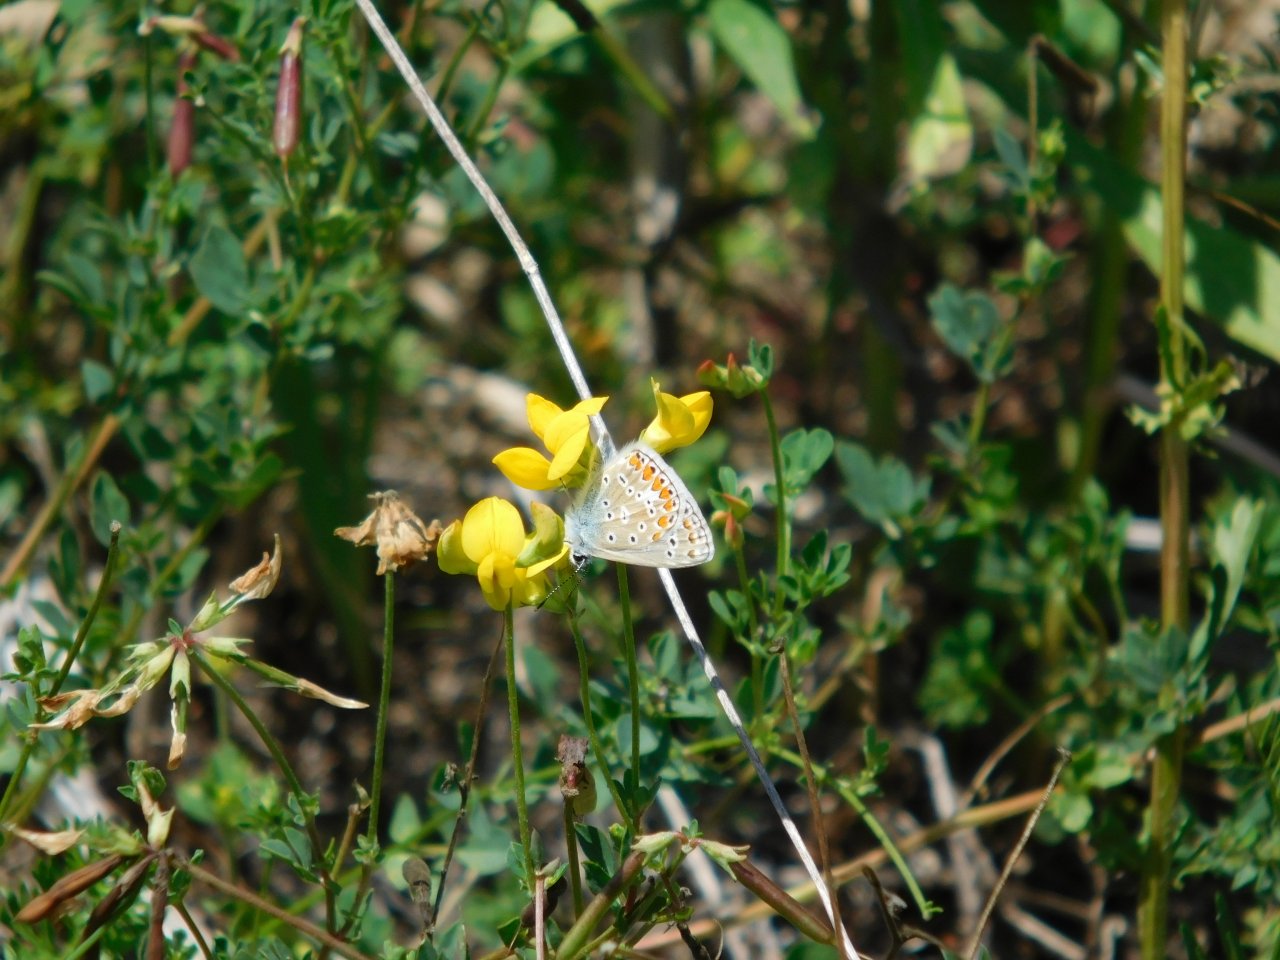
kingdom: Animalia
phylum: Arthropoda
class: Insecta
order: Lepidoptera
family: Lycaenidae
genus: Polyommatus
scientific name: Polyommatus icarus
